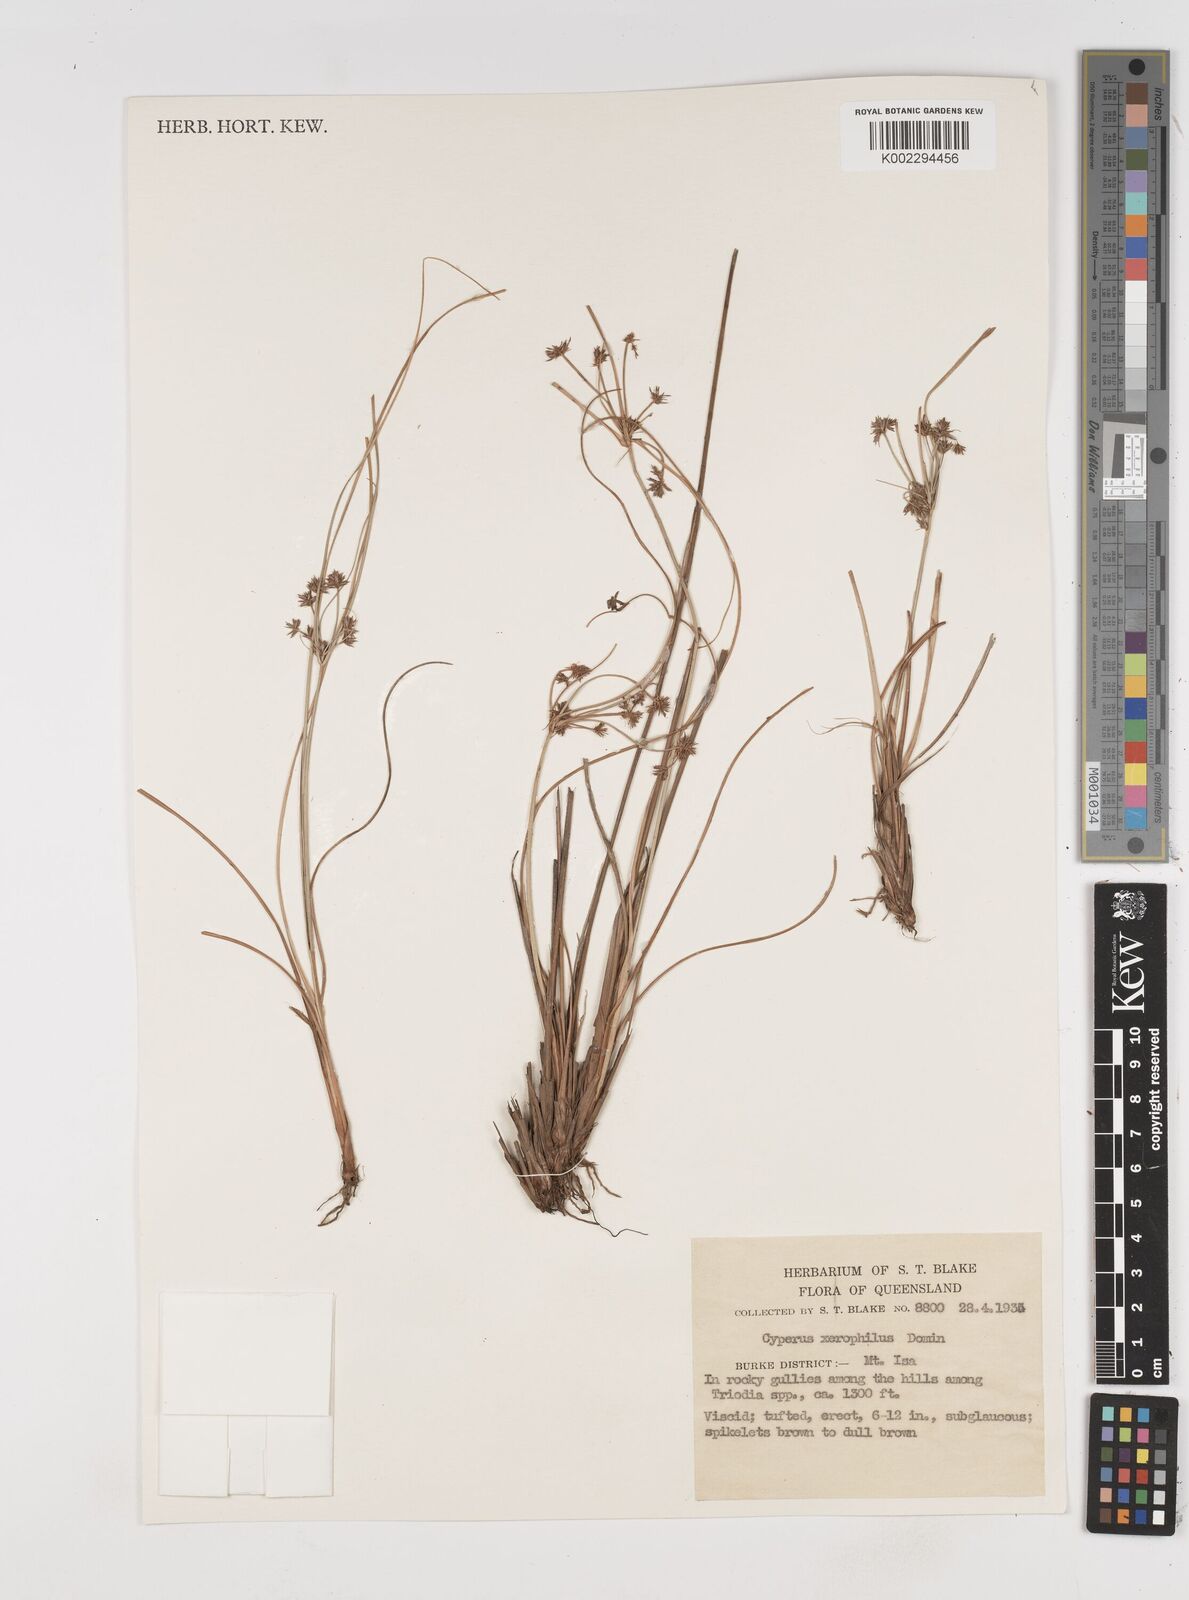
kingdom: Plantae
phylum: Tracheophyta
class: Liliopsida
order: Poales
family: Cyperaceae
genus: Cyperus
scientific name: Cyperus microcephalus
